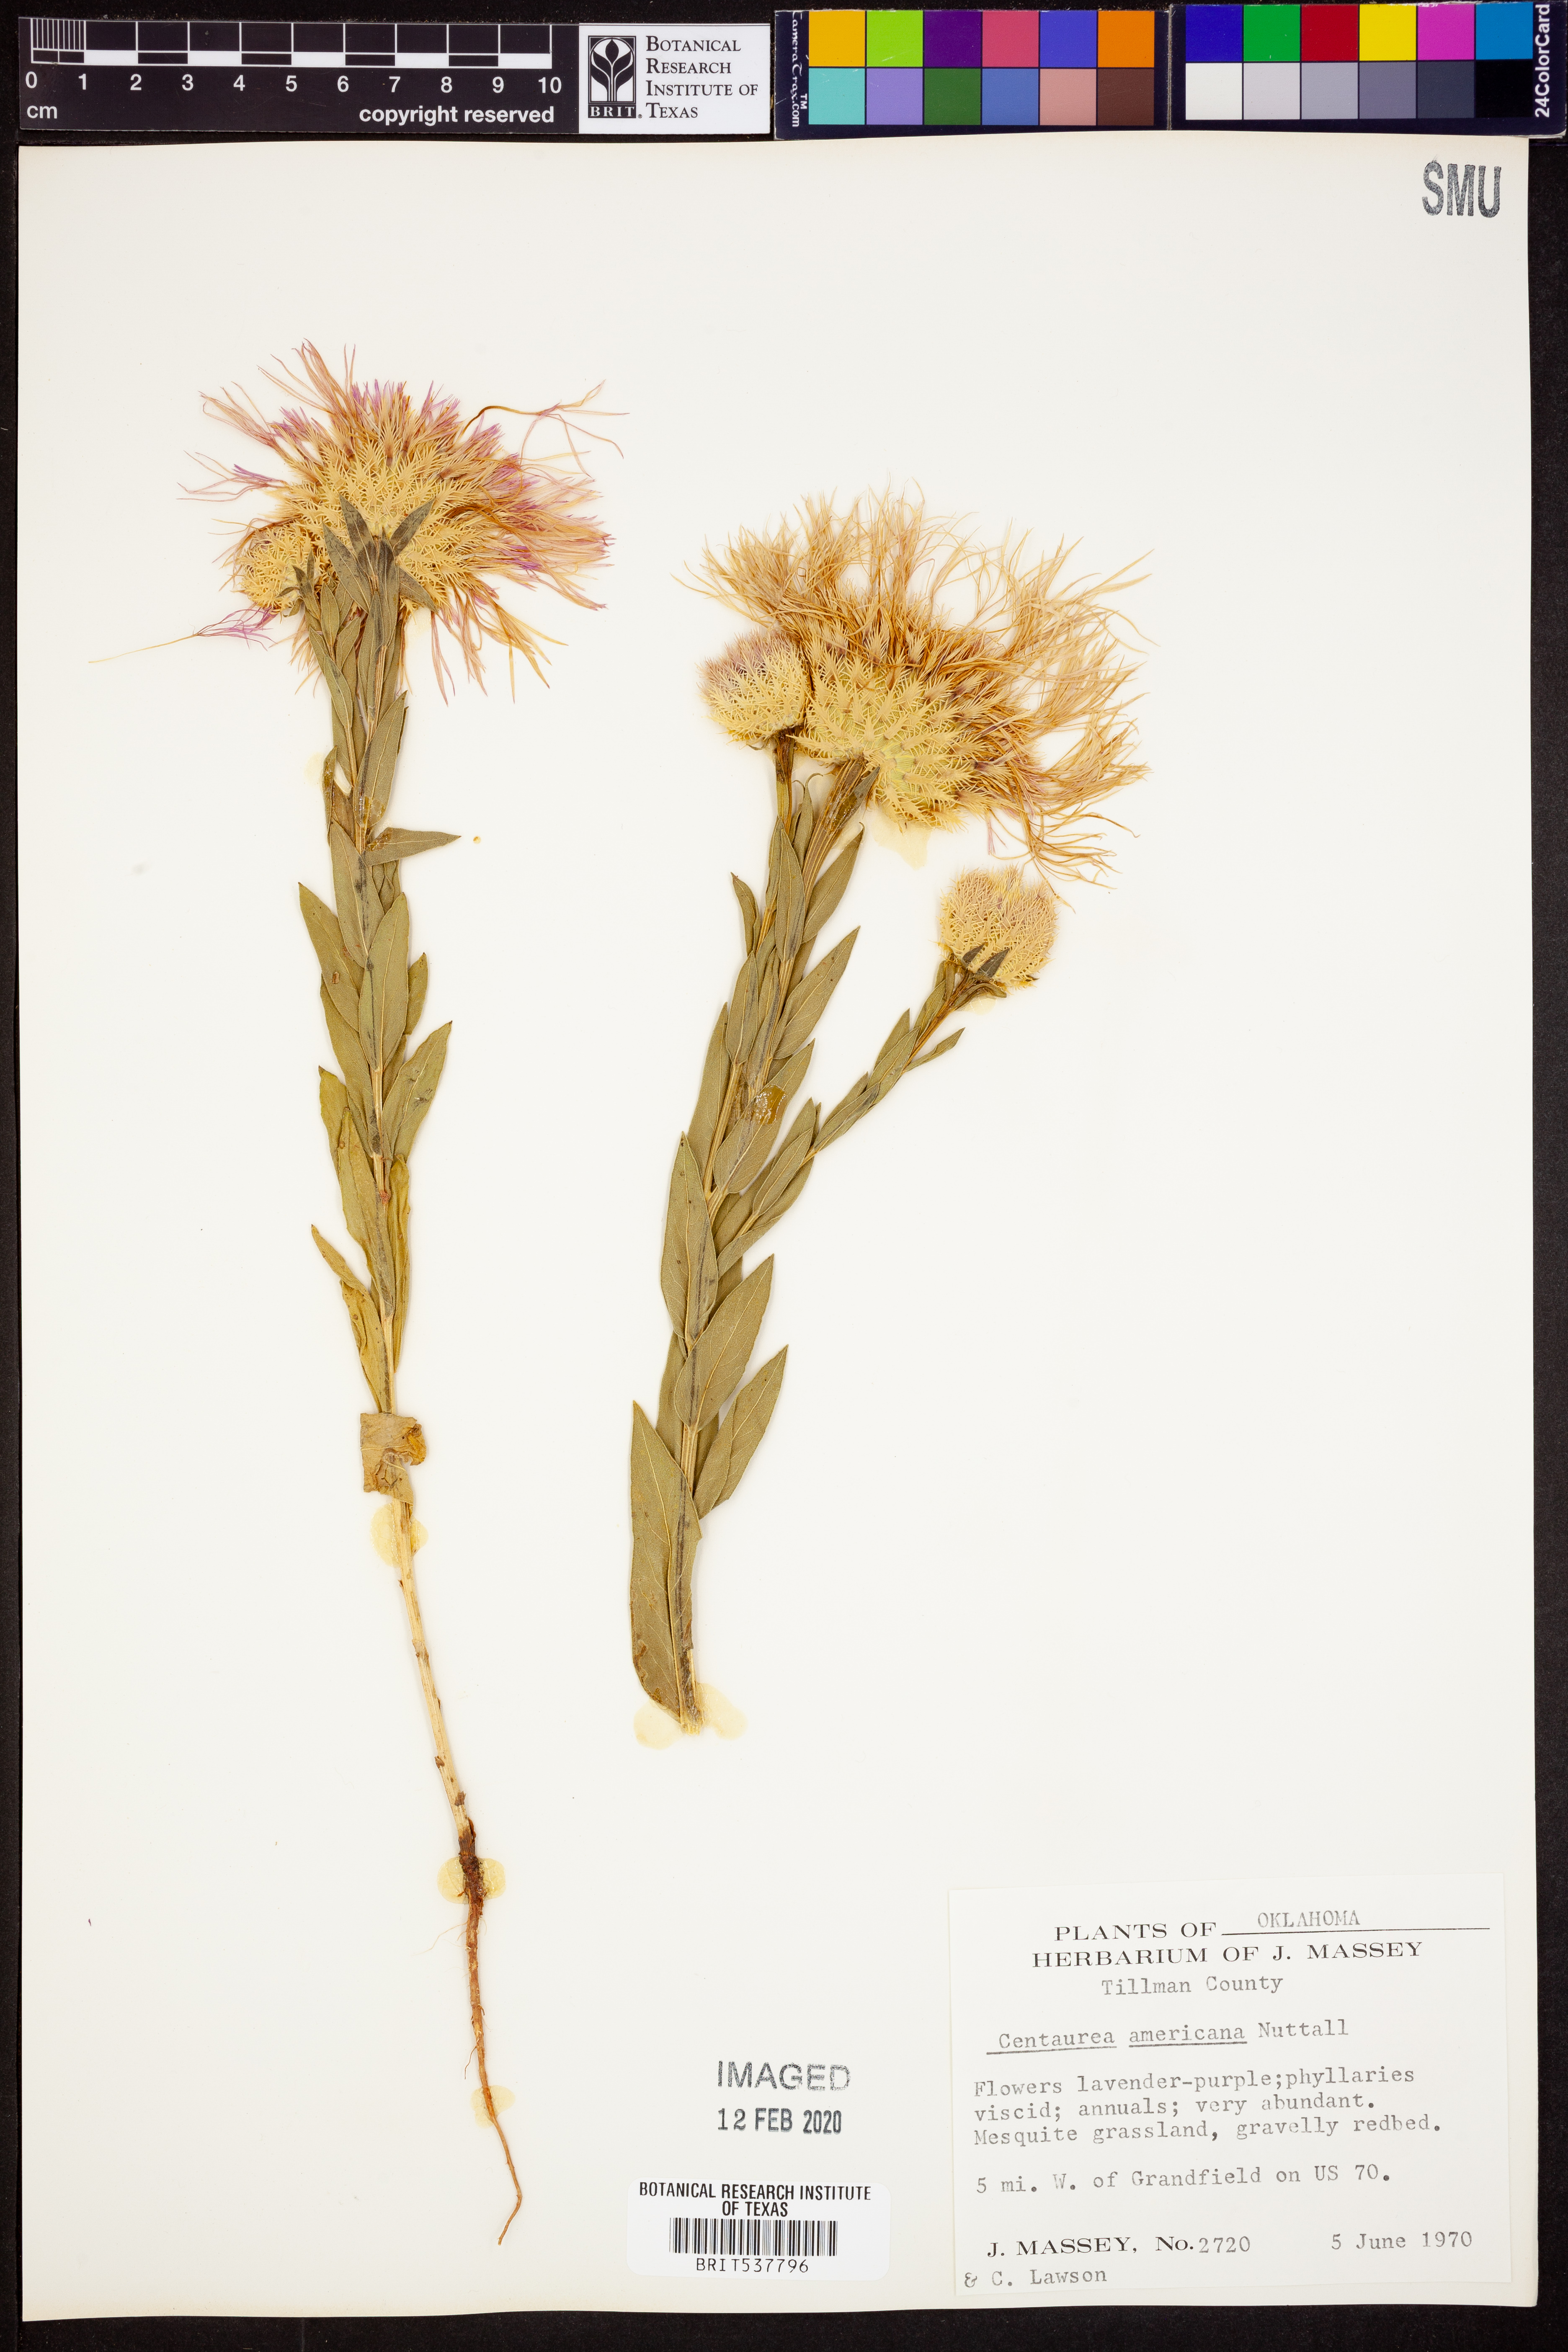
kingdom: Plantae
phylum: Tracheophyta
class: Magnoliopsida
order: Asterales
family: Asteraceae
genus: Plectocephalus
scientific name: Plectocephalus americanus
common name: American basket-flower
